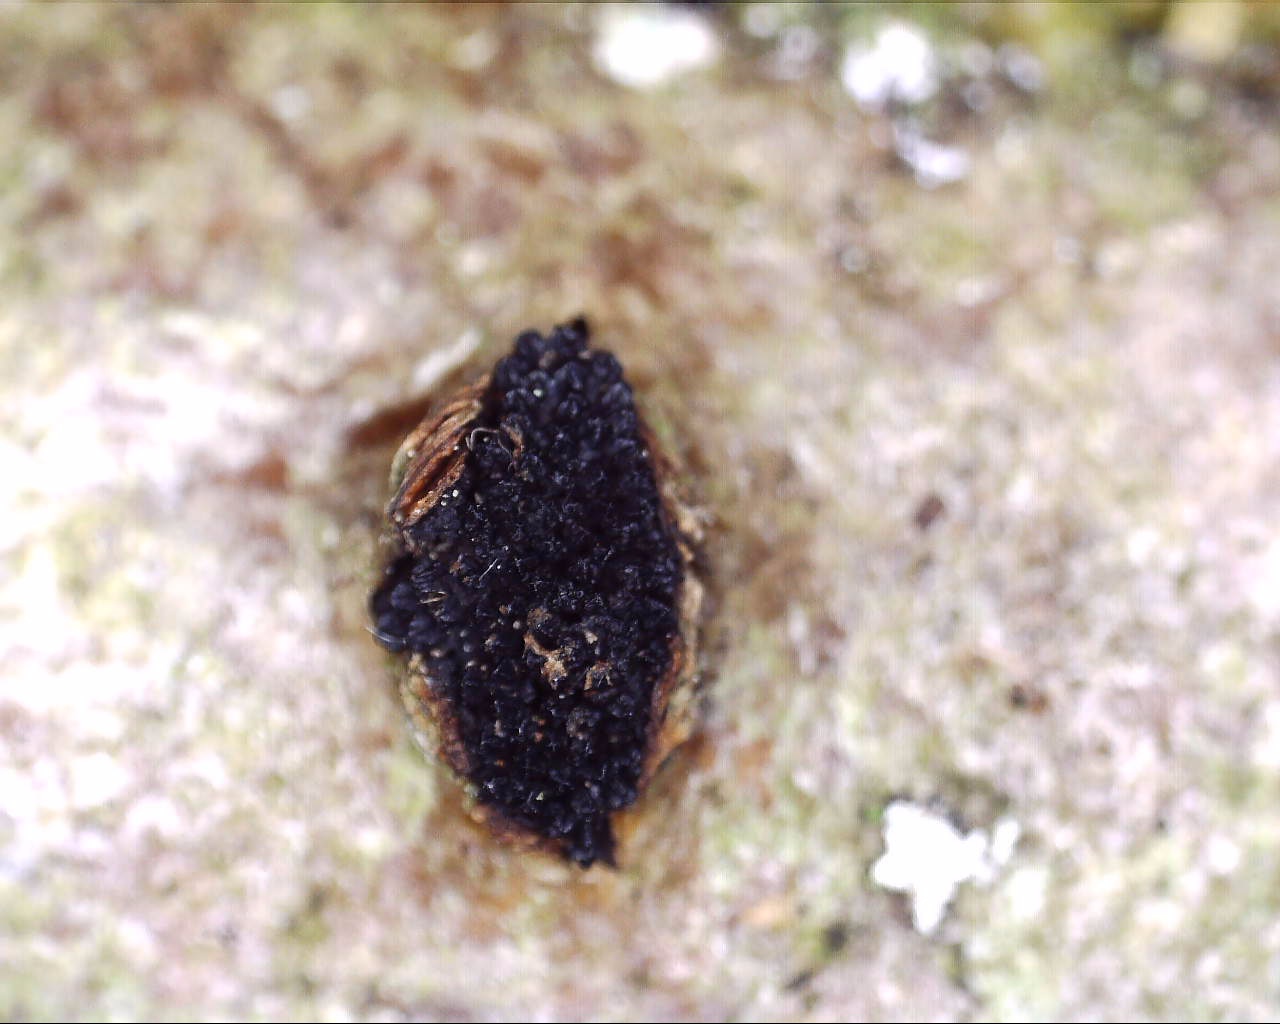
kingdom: Fungi
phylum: Ascomycota
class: Sordariomycetes
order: Xylariales
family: Diatrypaceae
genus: Eutypella
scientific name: Eutypella sorbi
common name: rønne-kulskorpe
